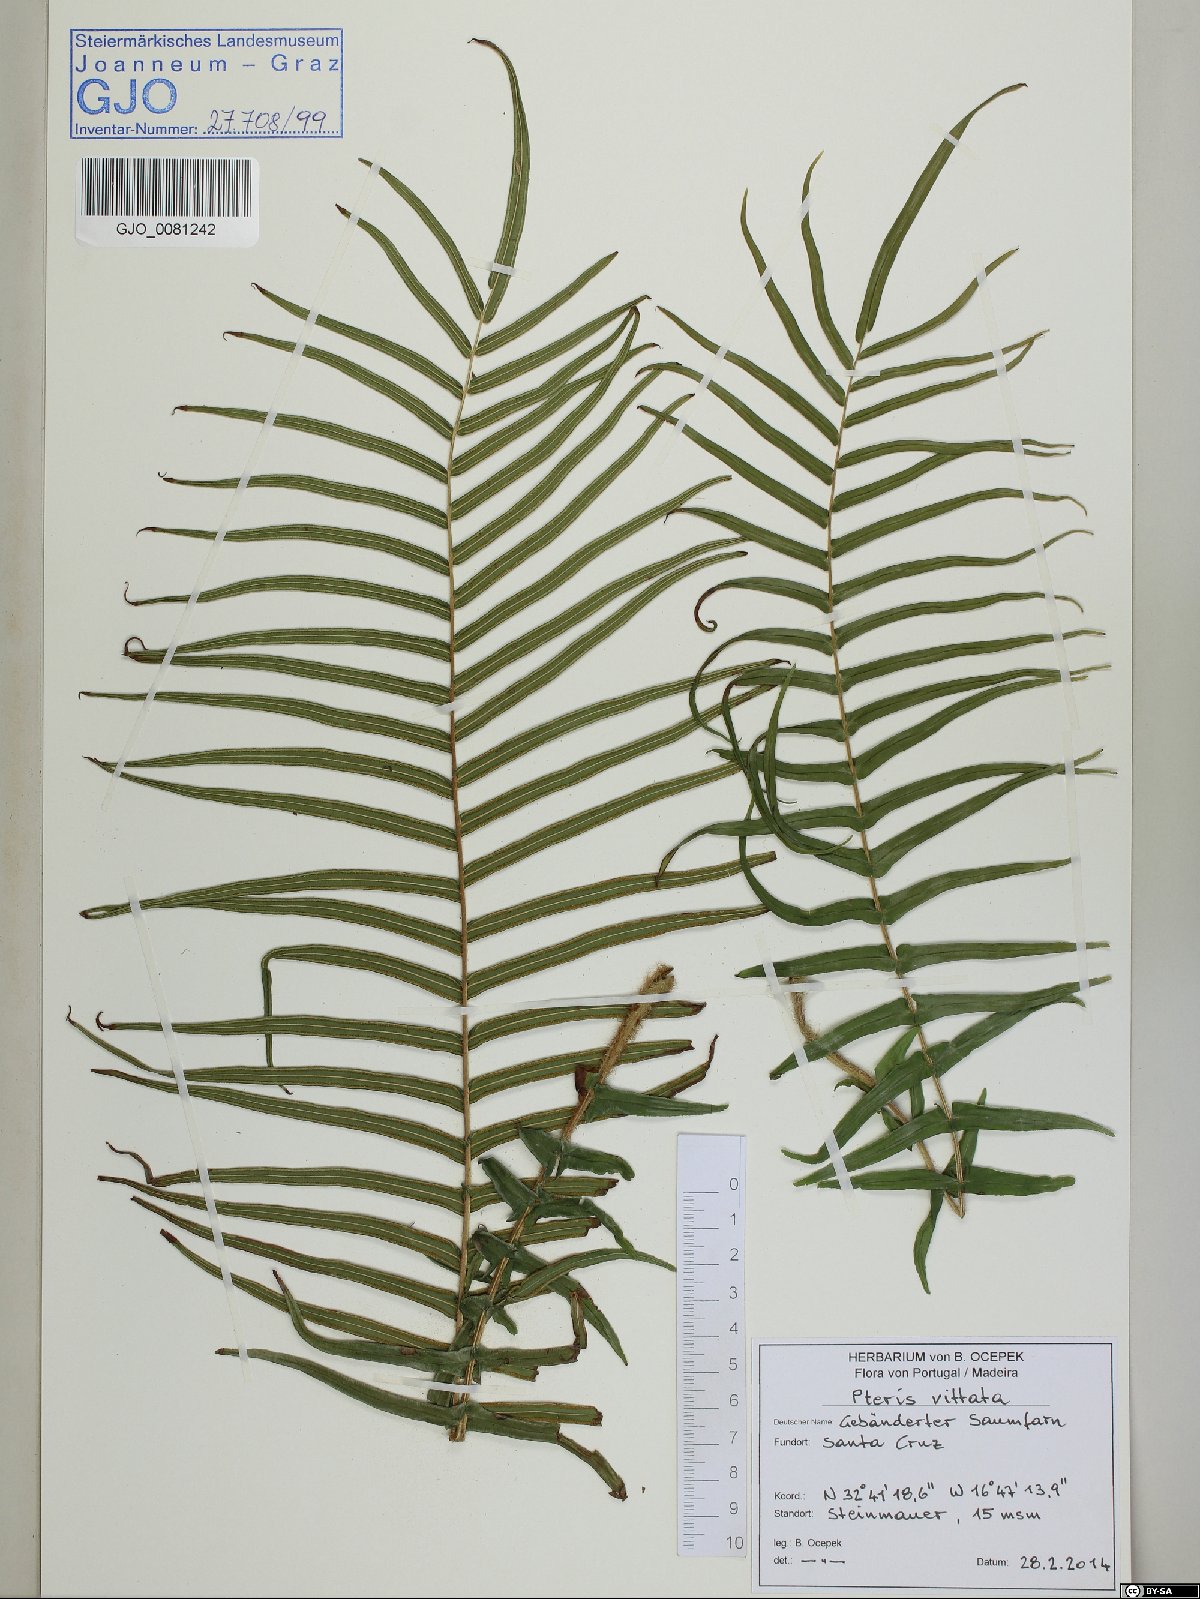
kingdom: Plantae
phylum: Tracheophyta
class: Polypodiopsida
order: Polypodiales
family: Pteridaceae
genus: Pteris
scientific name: Pteris vittata
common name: Ladder brake
